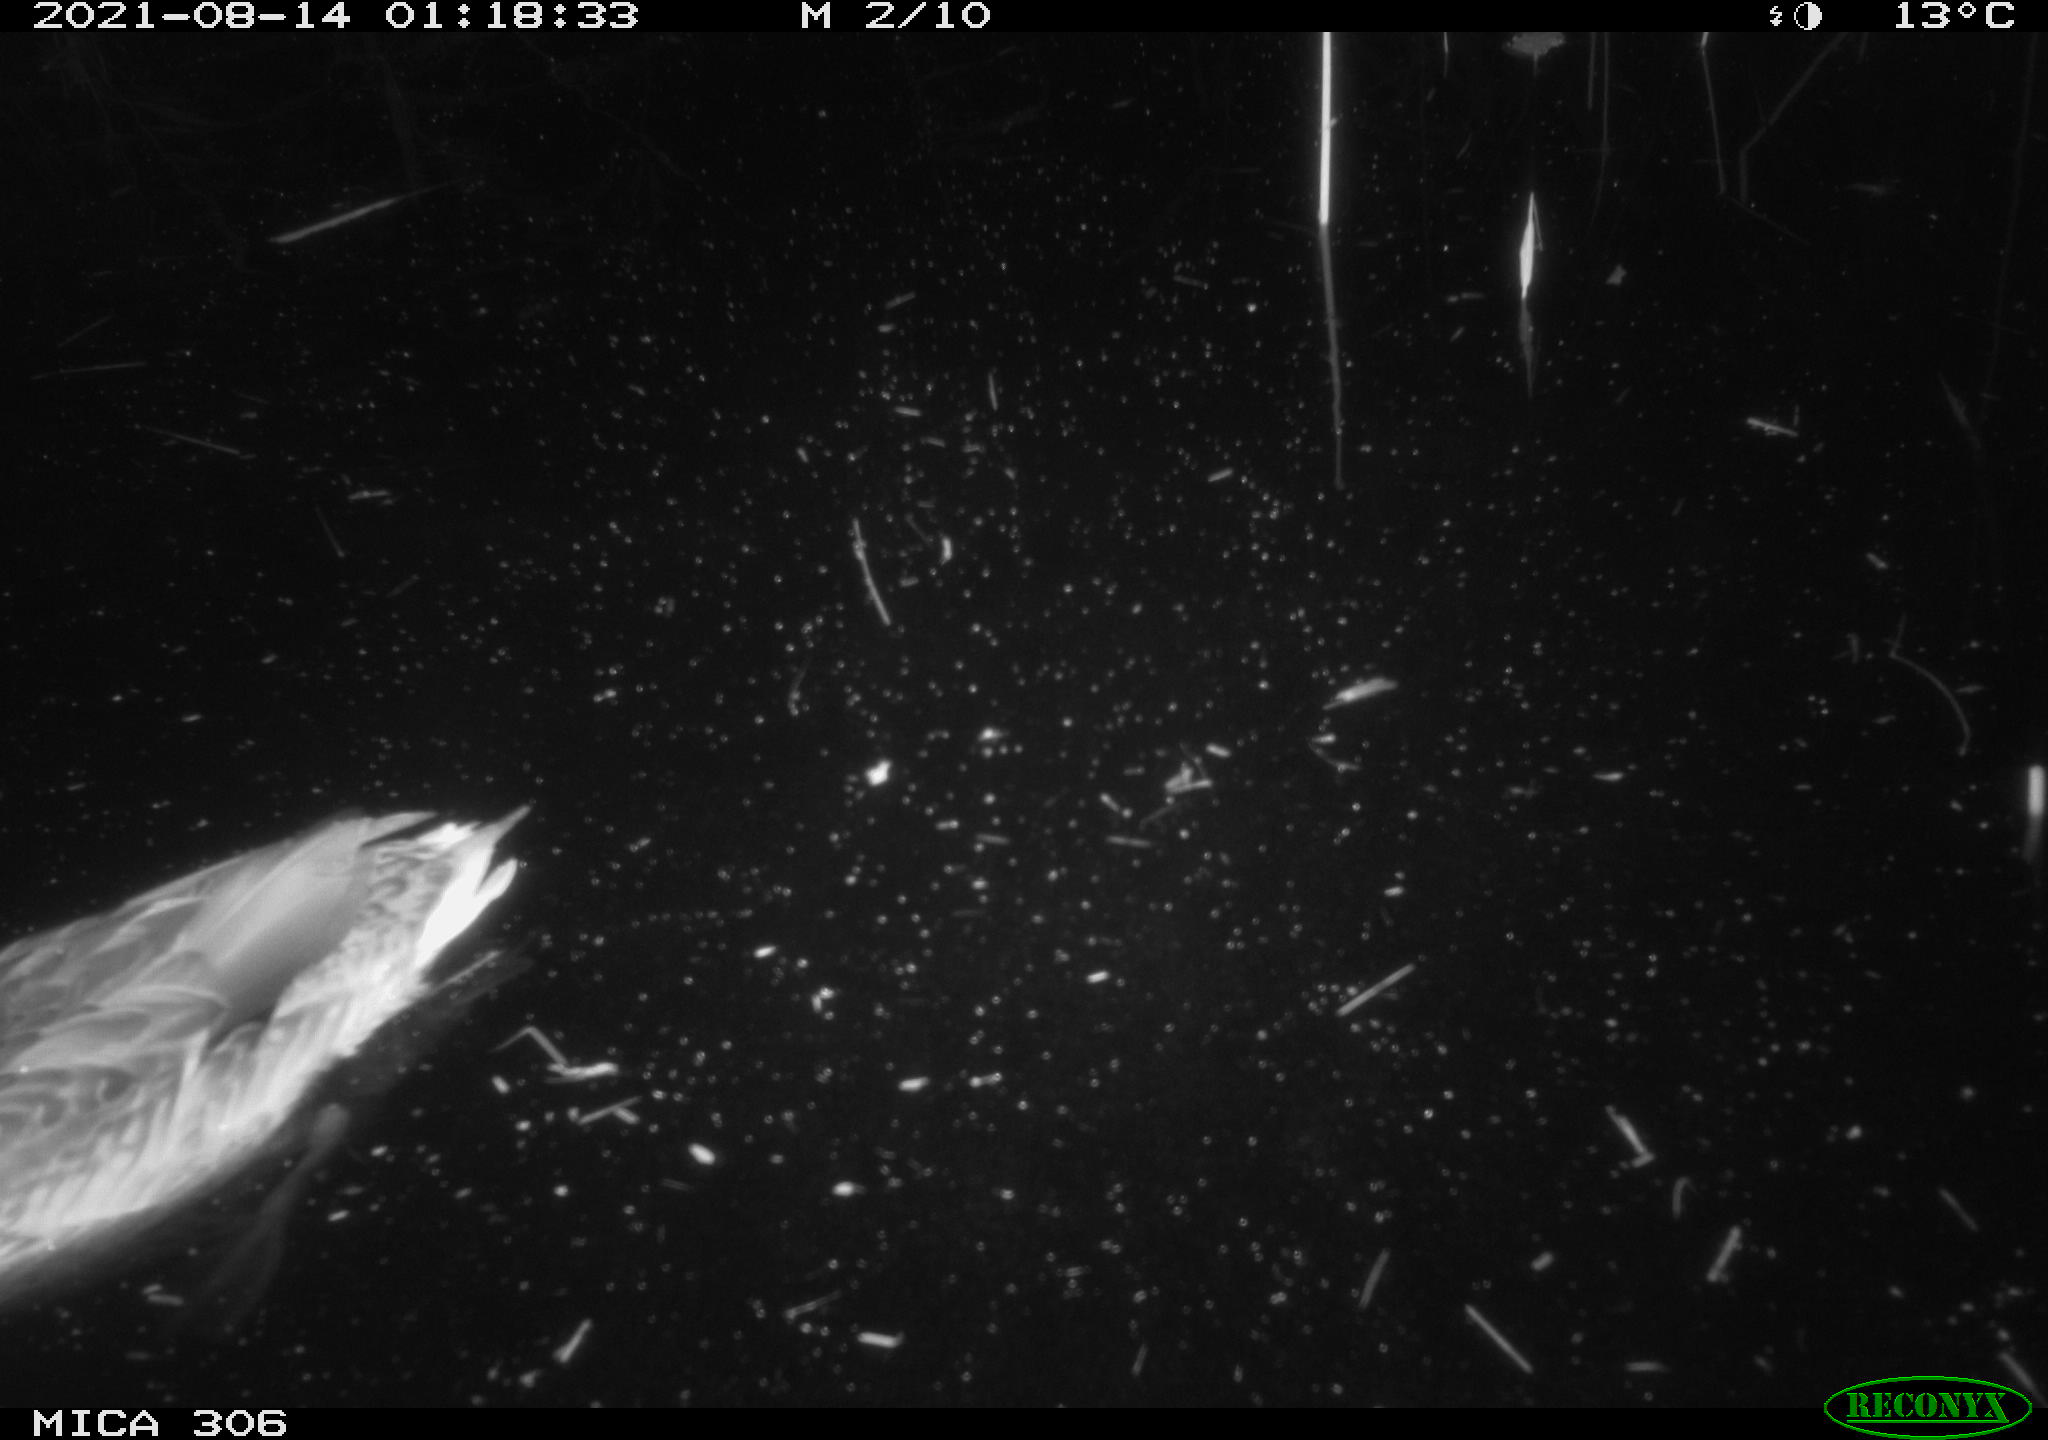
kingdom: Animalia
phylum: Chordata
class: Aves
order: Anseriformes
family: Anatidae
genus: Anas
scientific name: Anas platyrhynchos
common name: Mallard
